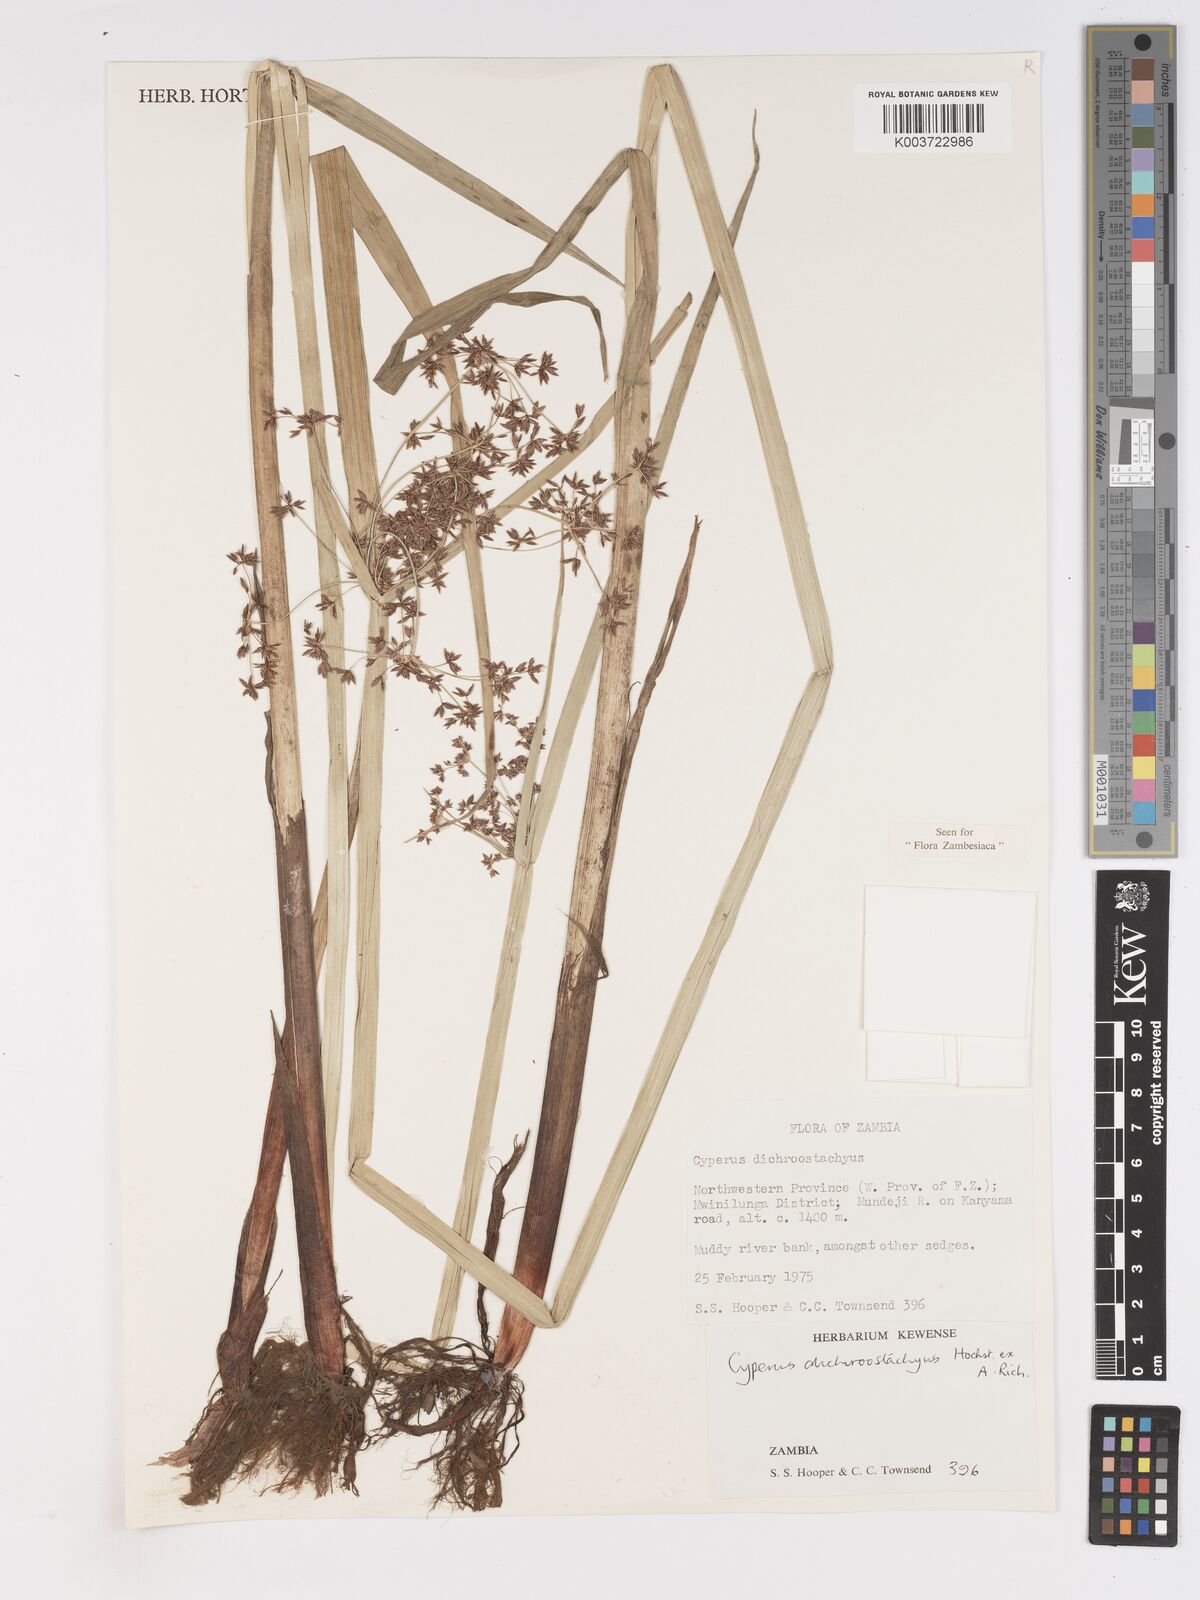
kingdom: Plantae
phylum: Tracheophyta
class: Liliopsida
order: Poales
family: Cyperaceae
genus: Cyperus
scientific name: Cyperus dichrostachyus
